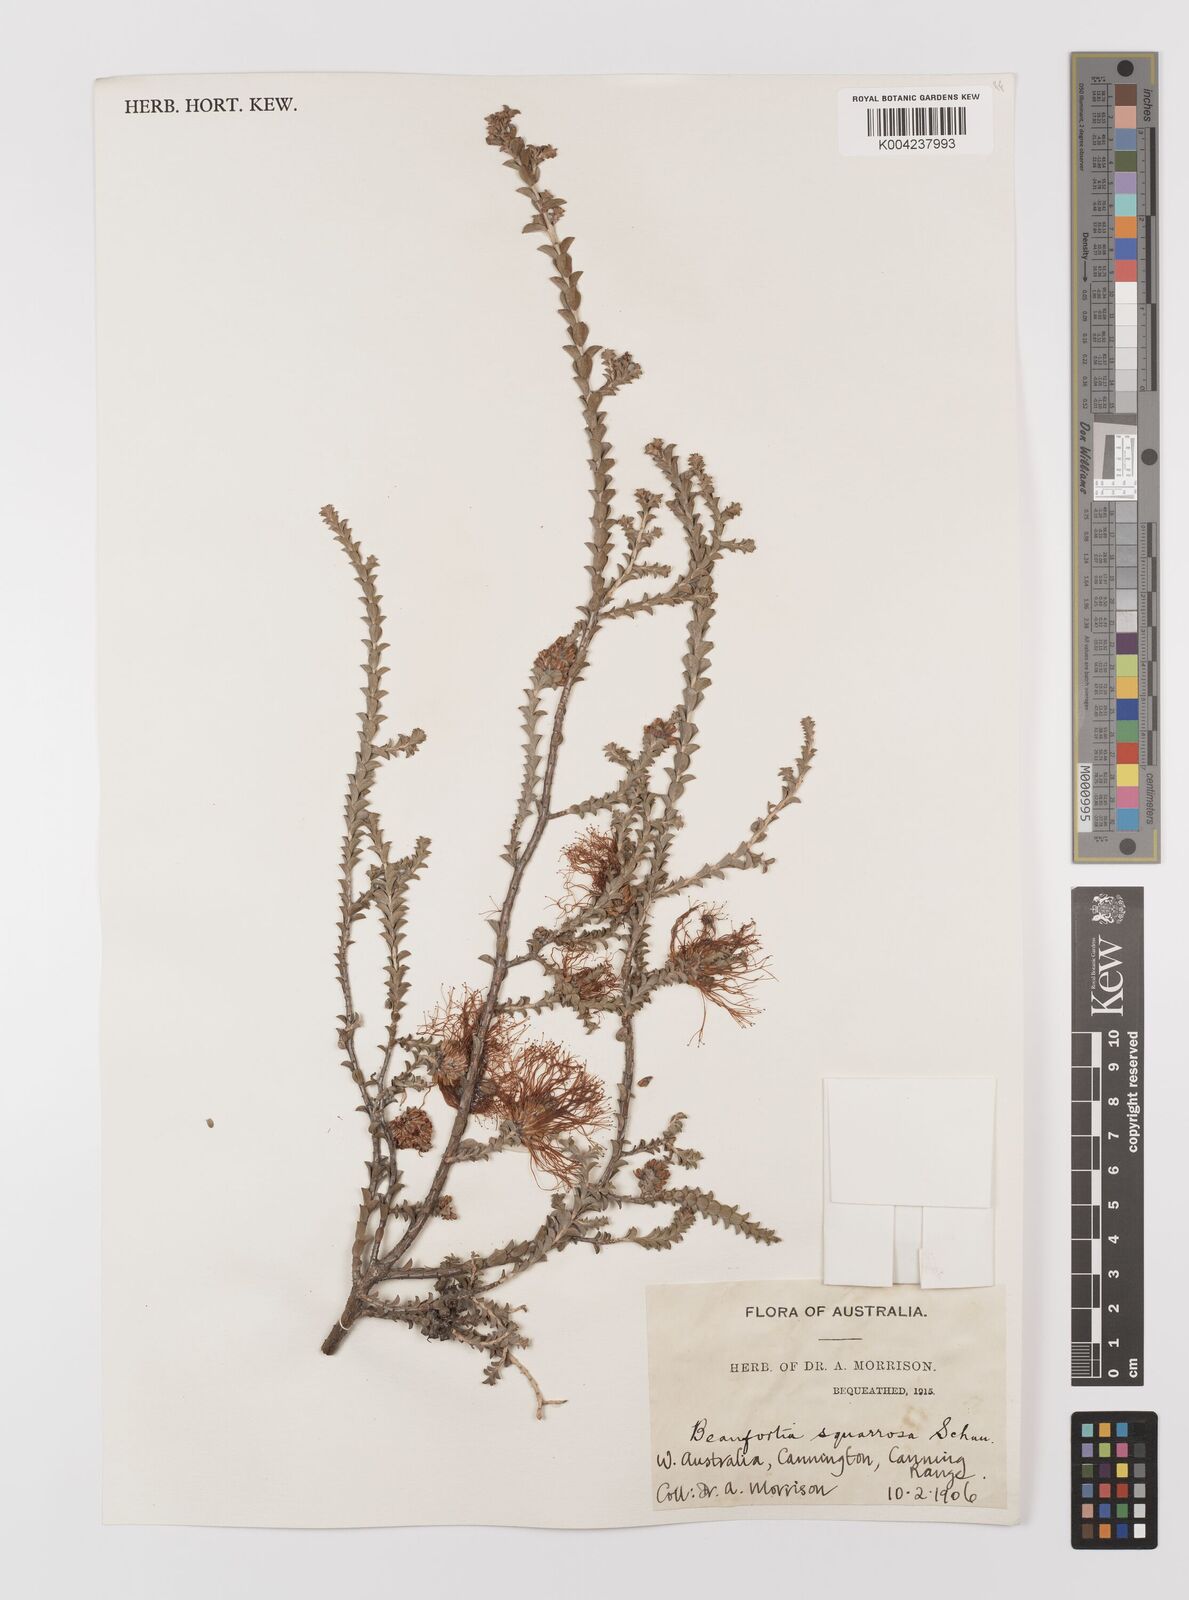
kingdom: Plantae
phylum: Tracheophyta
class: Magnoliopsida
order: Myrtales
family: Myrtaceae
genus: Melaleuca
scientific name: Melaleuca pulcherrima
